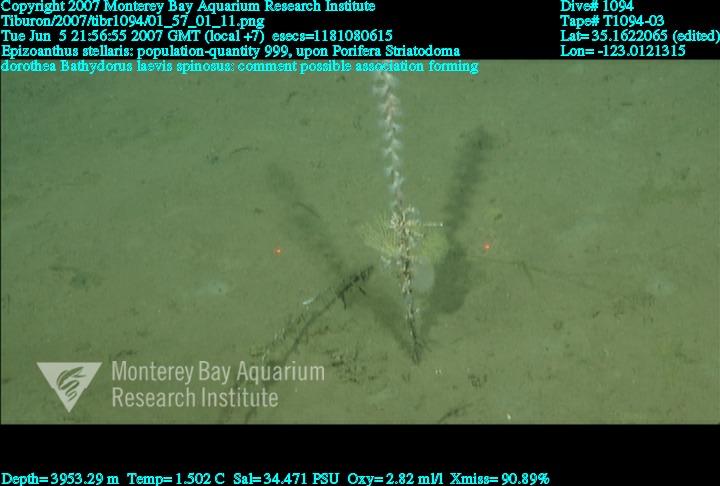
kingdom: Animalia
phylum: Porifera
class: Hexactinellida
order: Lyssacinosida
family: Rossellidae
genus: Bathydorus
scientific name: Bathydorus spinosus
